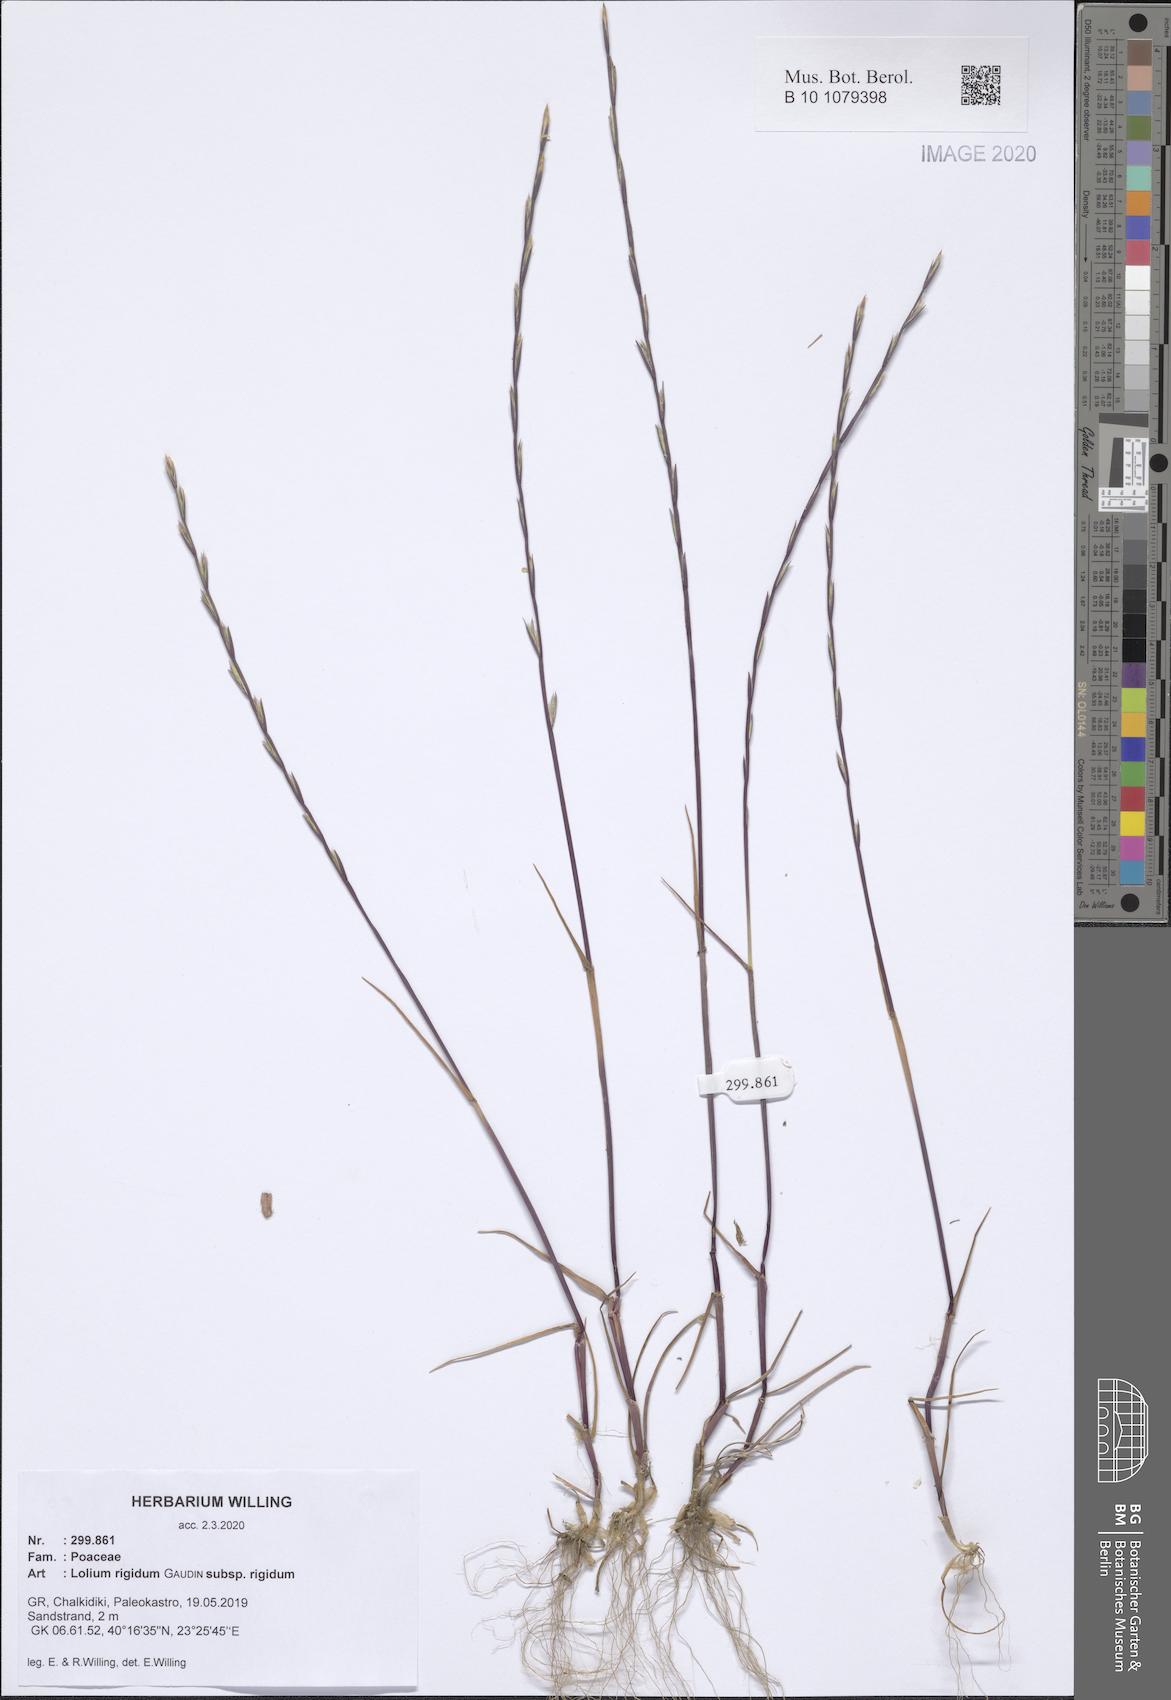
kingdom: Plantae
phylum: Tracheophyta
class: Liliopsida
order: Poales
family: Poaceae
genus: Lolium
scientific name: Lolium rigidum
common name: Wimmera ryegrass
